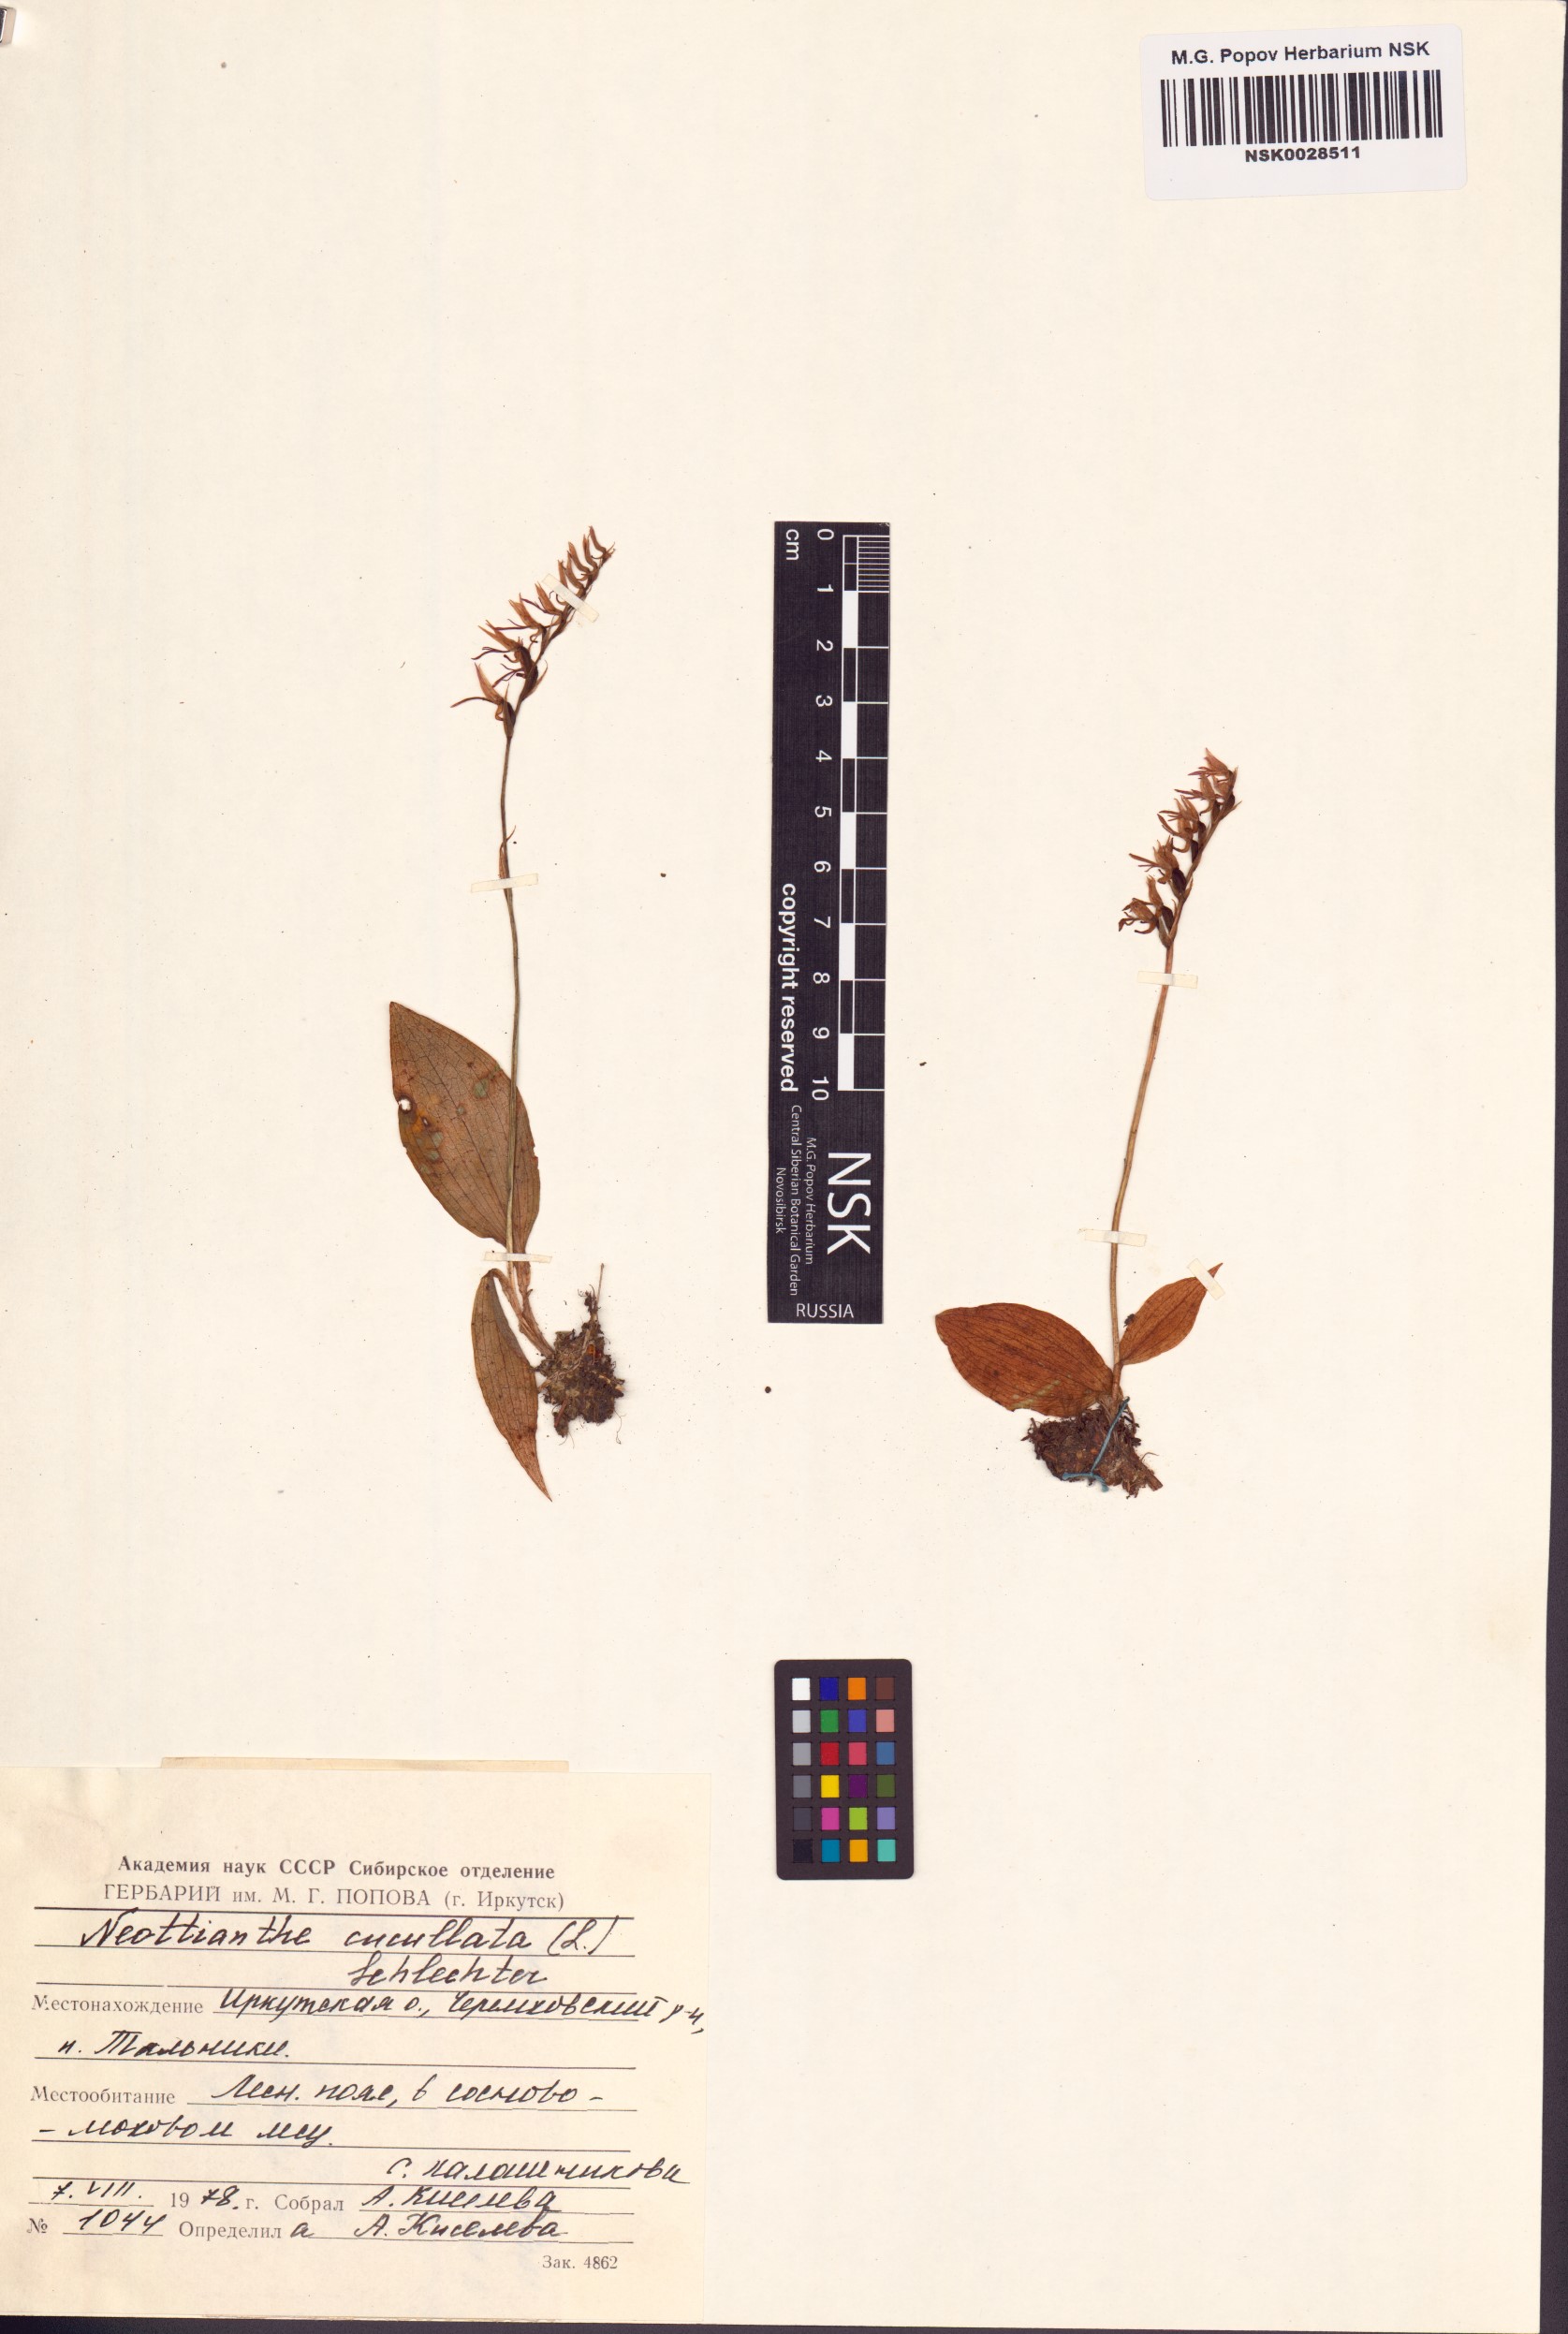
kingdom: Plantae
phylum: Tracheophyta
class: Liliopsida
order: Asparagales
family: Orchidaceae
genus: Hemipilia
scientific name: Hemipilia cucullata
